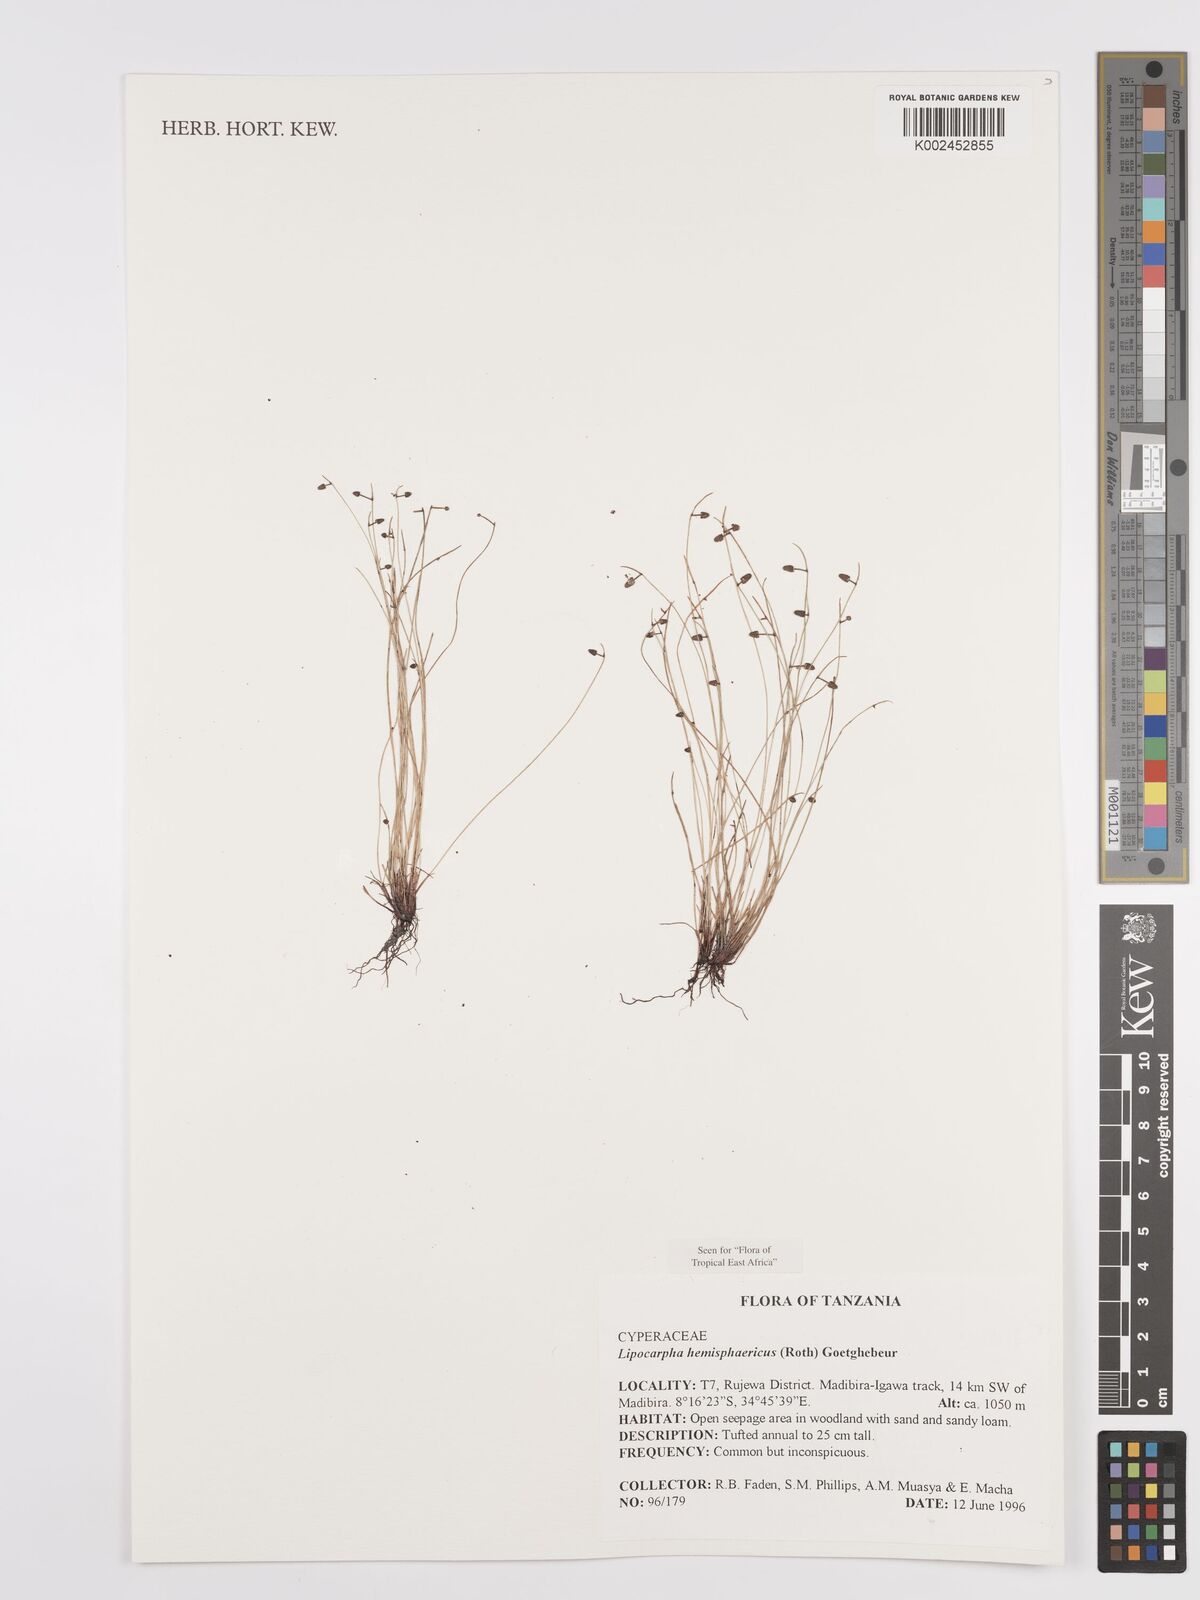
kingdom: Plantae
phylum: Tracheophyta
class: Liliopsida
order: Poales
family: Cyperaceae
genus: Cyperus
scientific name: Cyperus hemisphaericus
